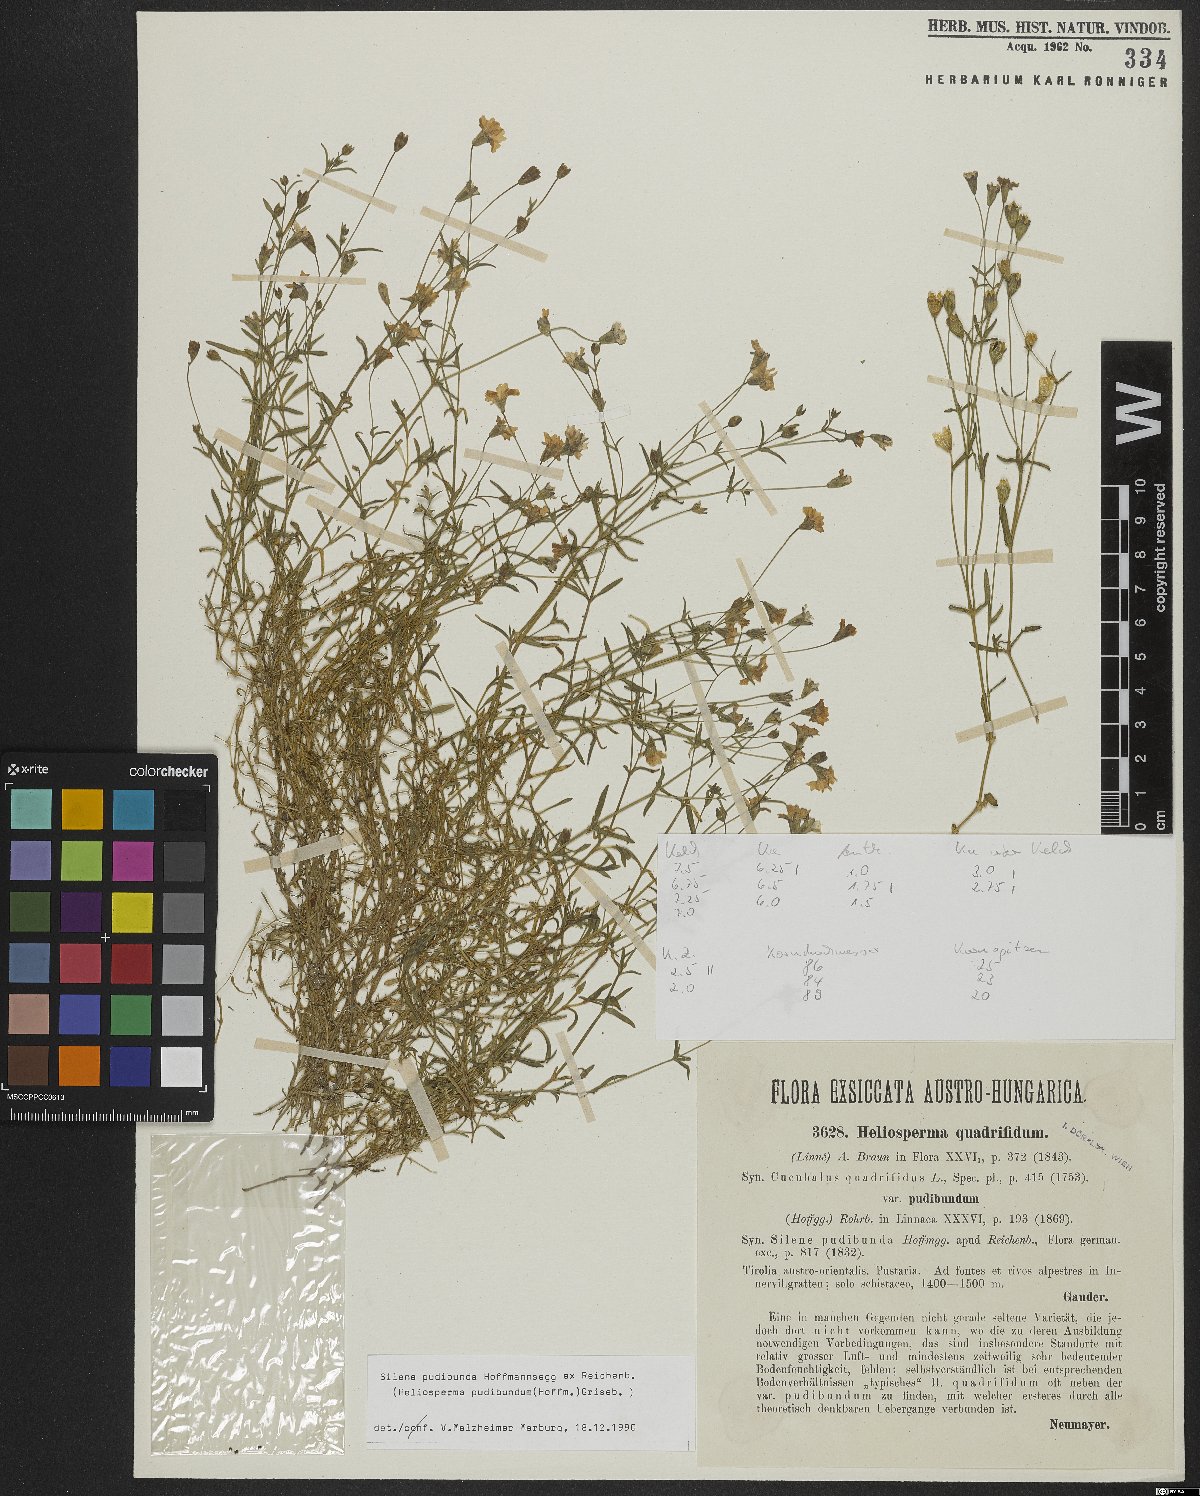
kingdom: Plantae
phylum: Tracheophyta
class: Magnoliopsida
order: Caryophyllales
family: Caryophyllaceae
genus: Heliosperma
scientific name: Heliosperma pudibundum
